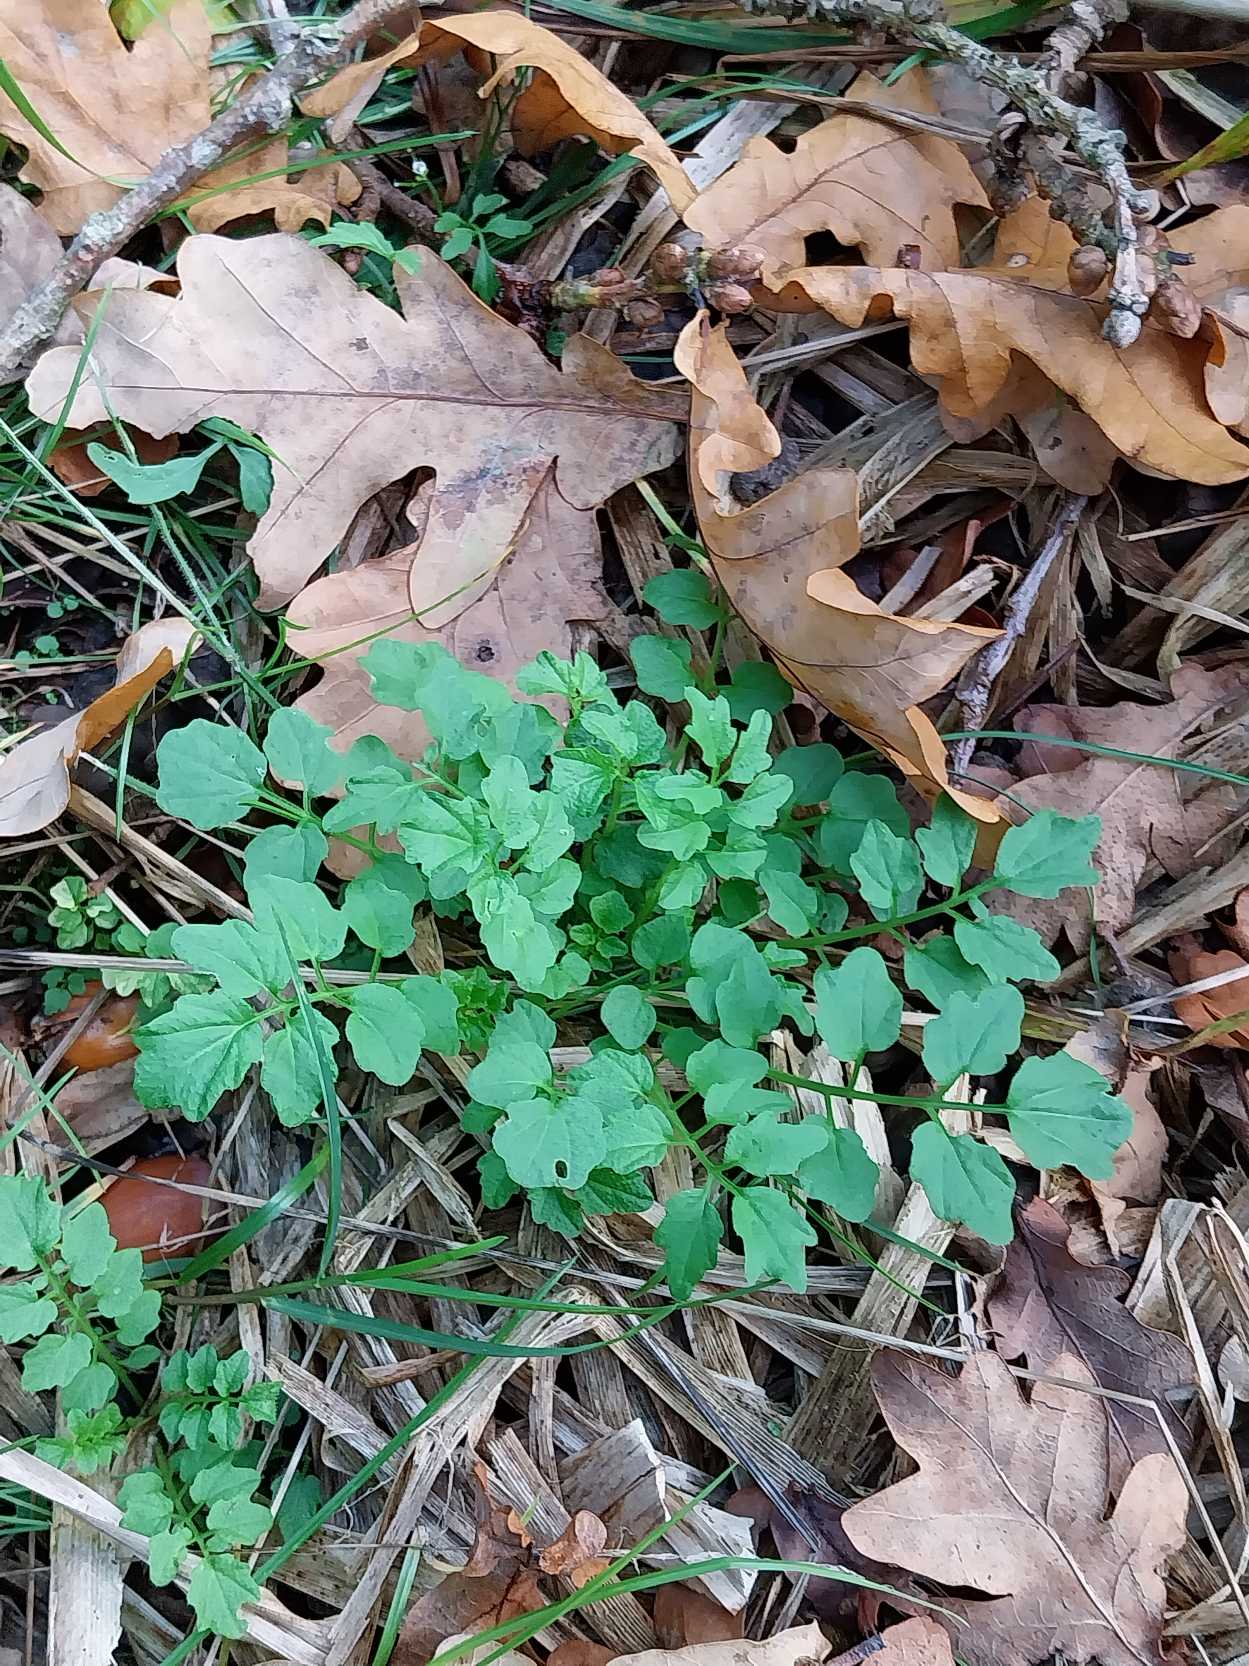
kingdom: Plantae
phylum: Tracheophyta
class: Magnoliopsida
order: Brassicales
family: Brassicaceae
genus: Cardamine
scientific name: Cardamine amara
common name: Vandkarse
